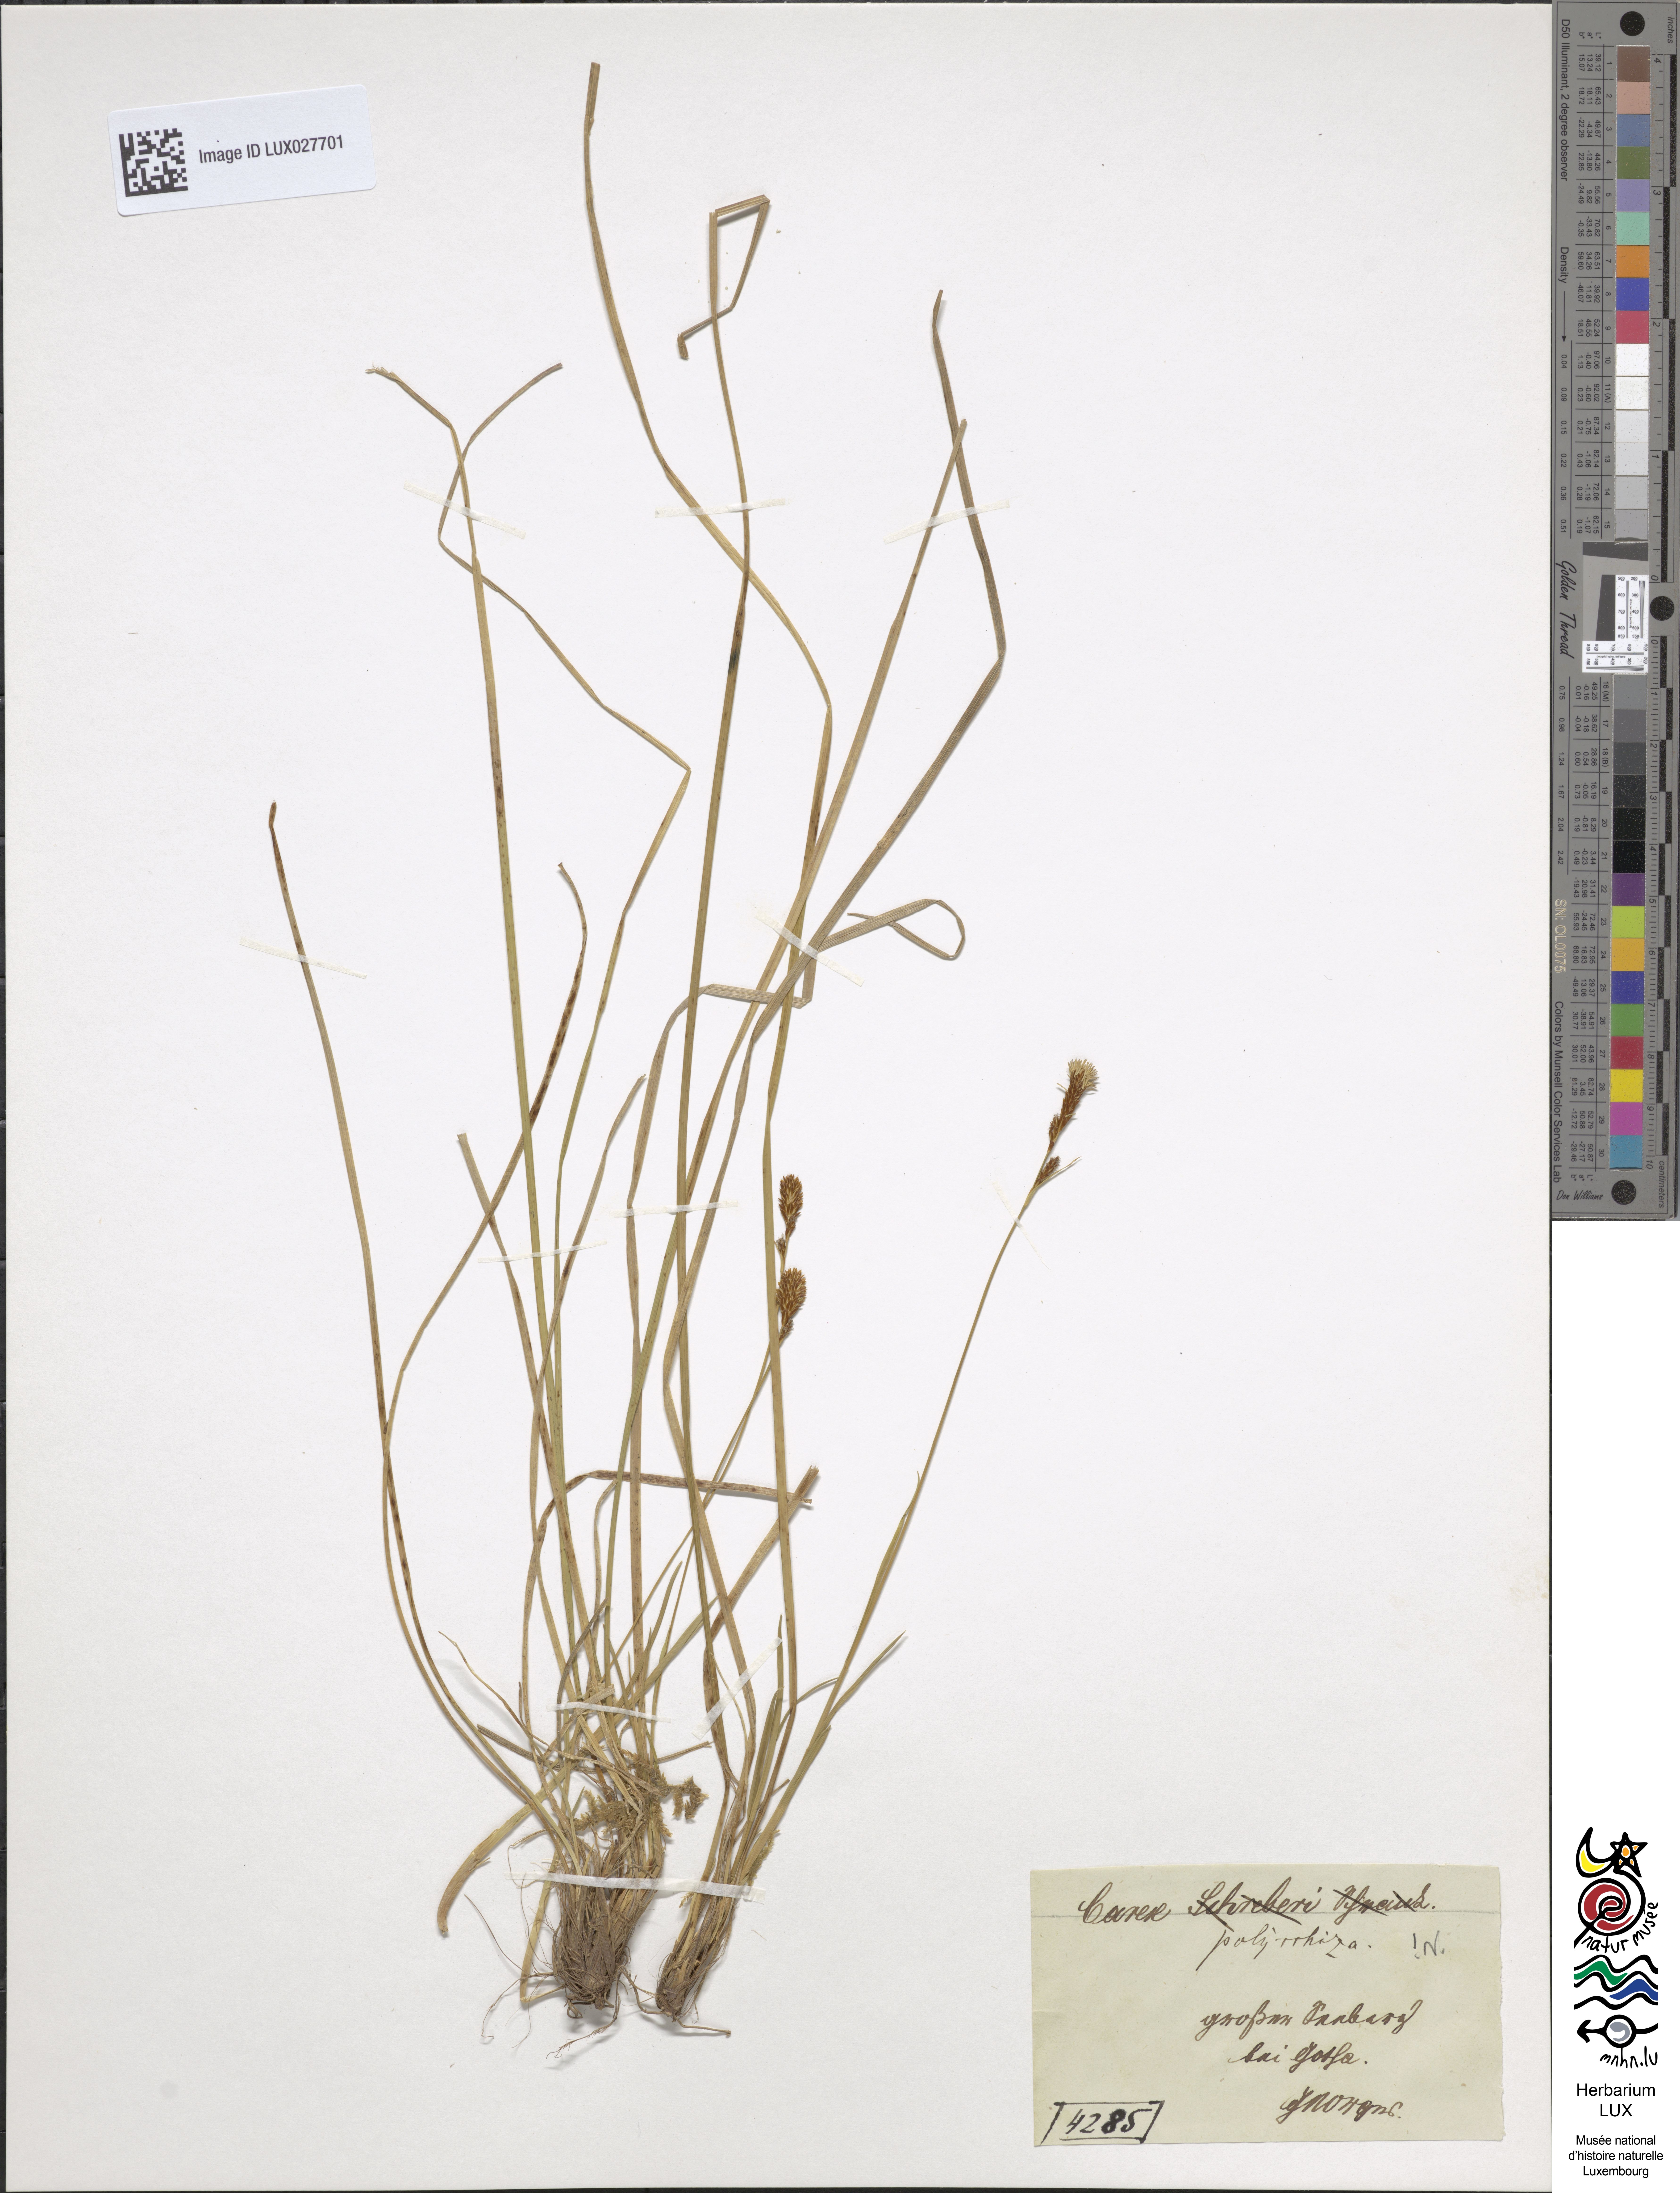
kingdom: Plantae
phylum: Tracheophyta
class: Liliopsida
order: Poales
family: Cyperaceae
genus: Carex
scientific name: Carex umbrosa
